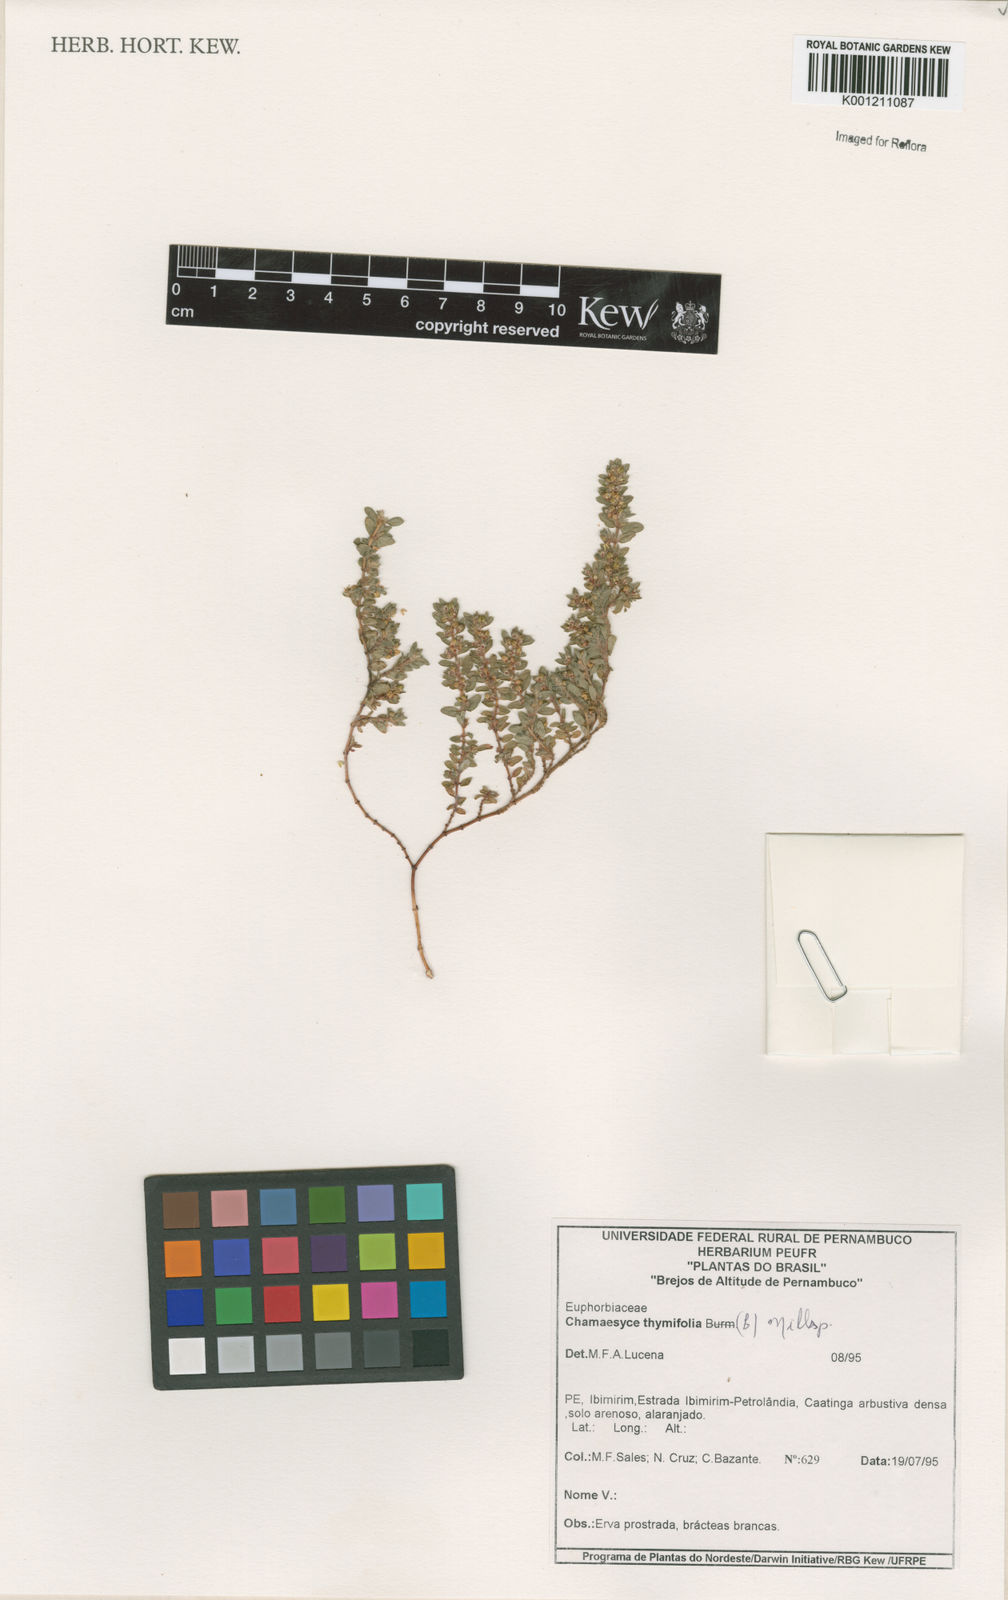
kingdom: Plantae
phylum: Tracheophyta
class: Magnoliopsida
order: Malpighiales
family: Euphorbiaceae
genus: Euphorbia
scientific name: Euphorbia thymifolia
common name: Gulf sandmat
